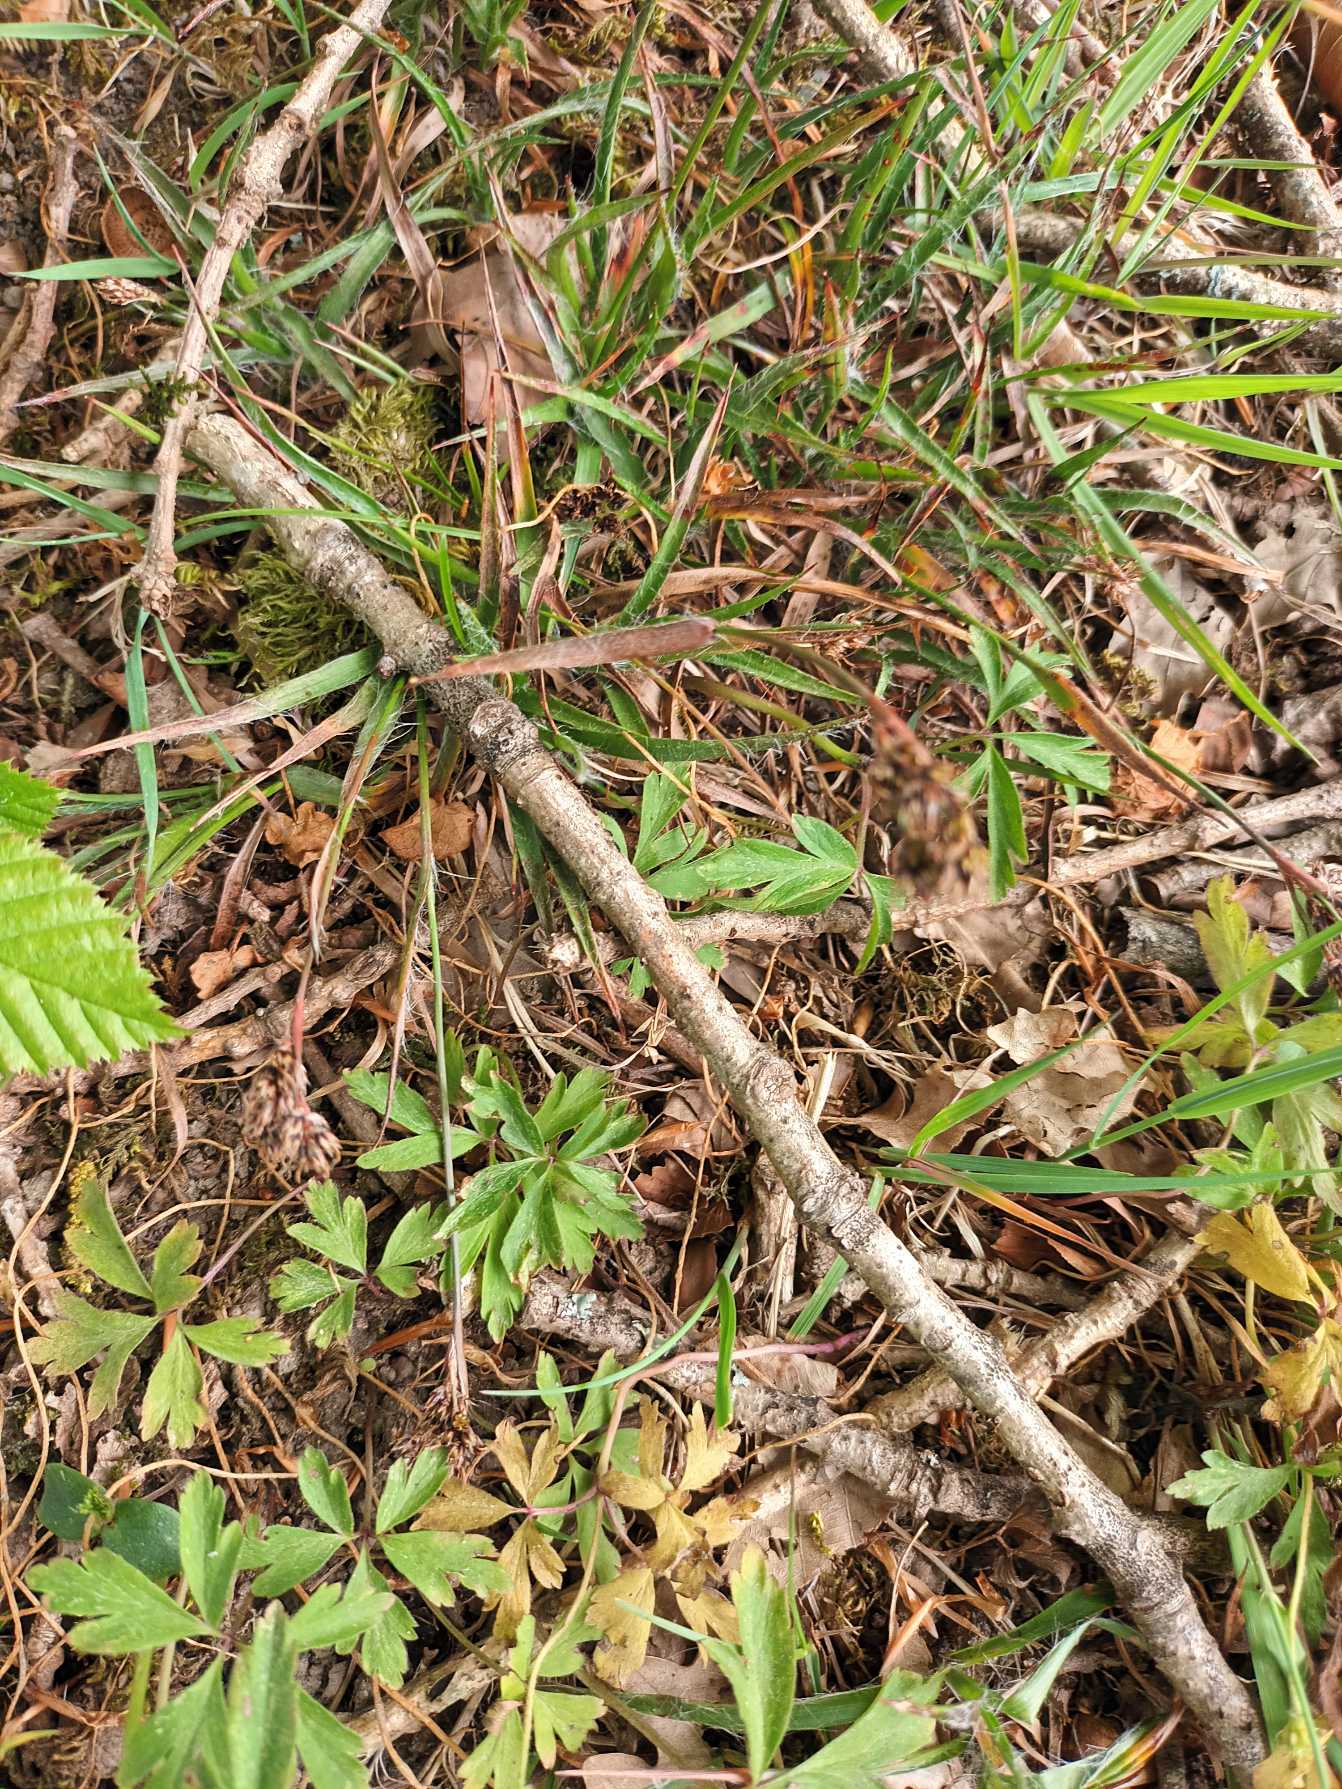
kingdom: Plantae
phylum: Tracheophyta
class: Liliopsida
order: Poales
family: Juncaceae
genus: Luzula
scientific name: Luzula campestris
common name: Mark-frytle
